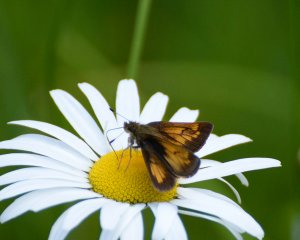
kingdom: Animalia
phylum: Arthropoda
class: Insecta
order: Lepidoptera
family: Hesperiidae
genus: Lon
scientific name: Lon hobomok
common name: Hobomok Skipper
